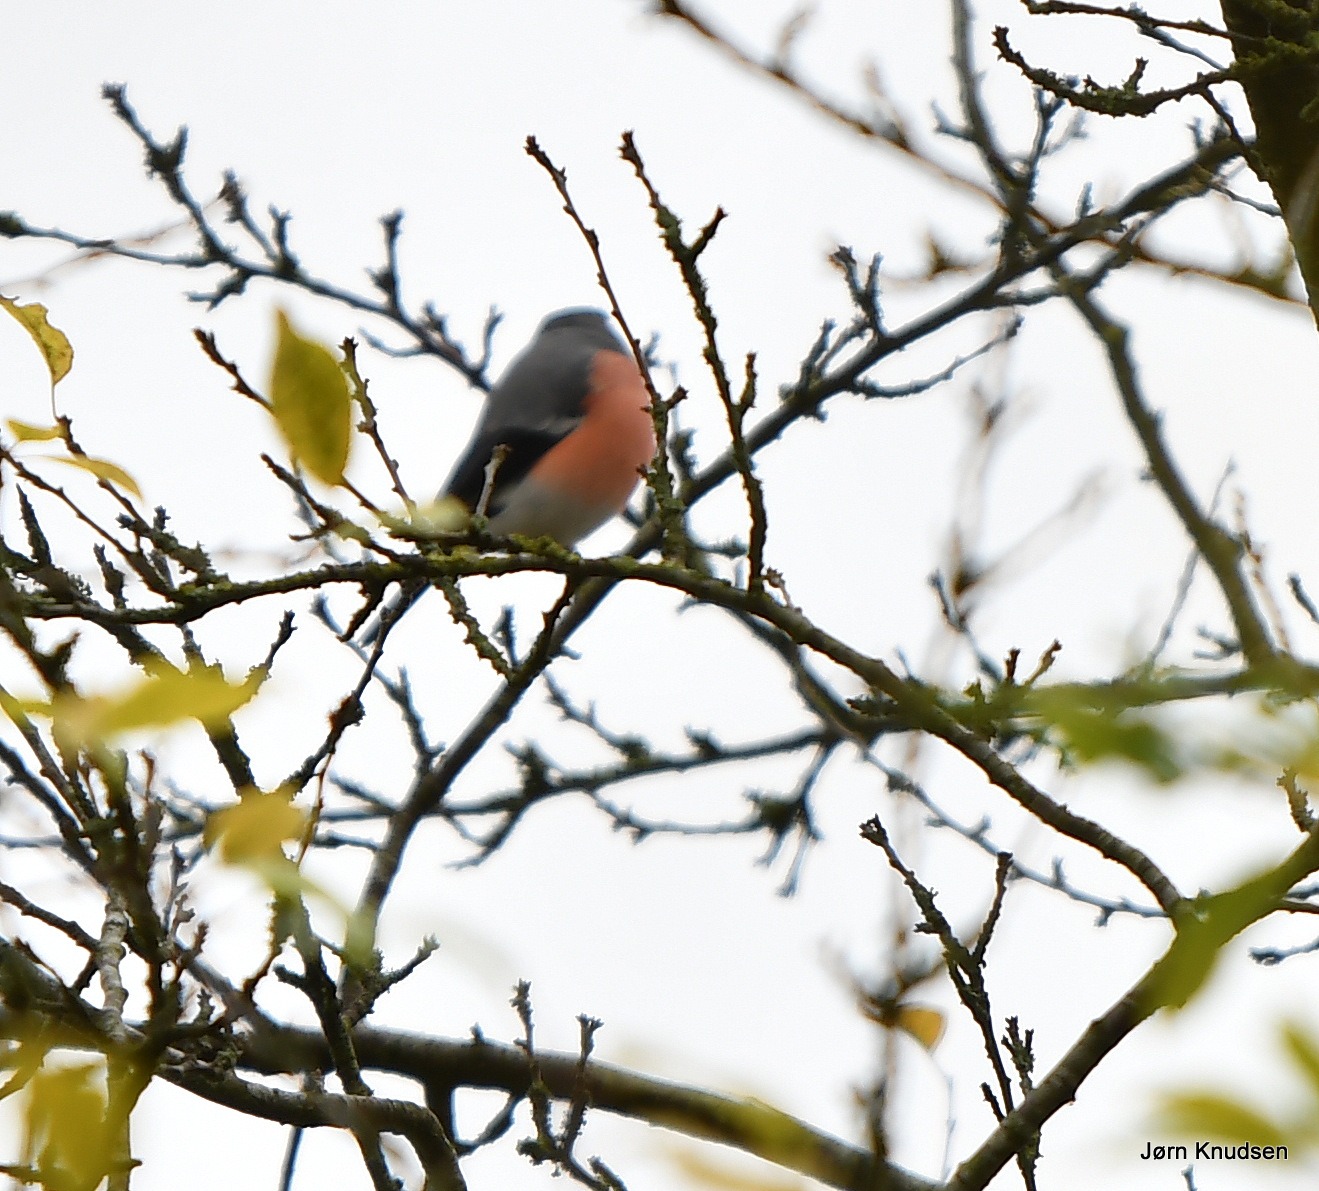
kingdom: Animalia
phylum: Chordata
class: Aves
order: Passeriformes
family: Fringillidae
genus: Pyrrhula
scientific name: Pyrrhula pyrrhula
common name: Dompap
